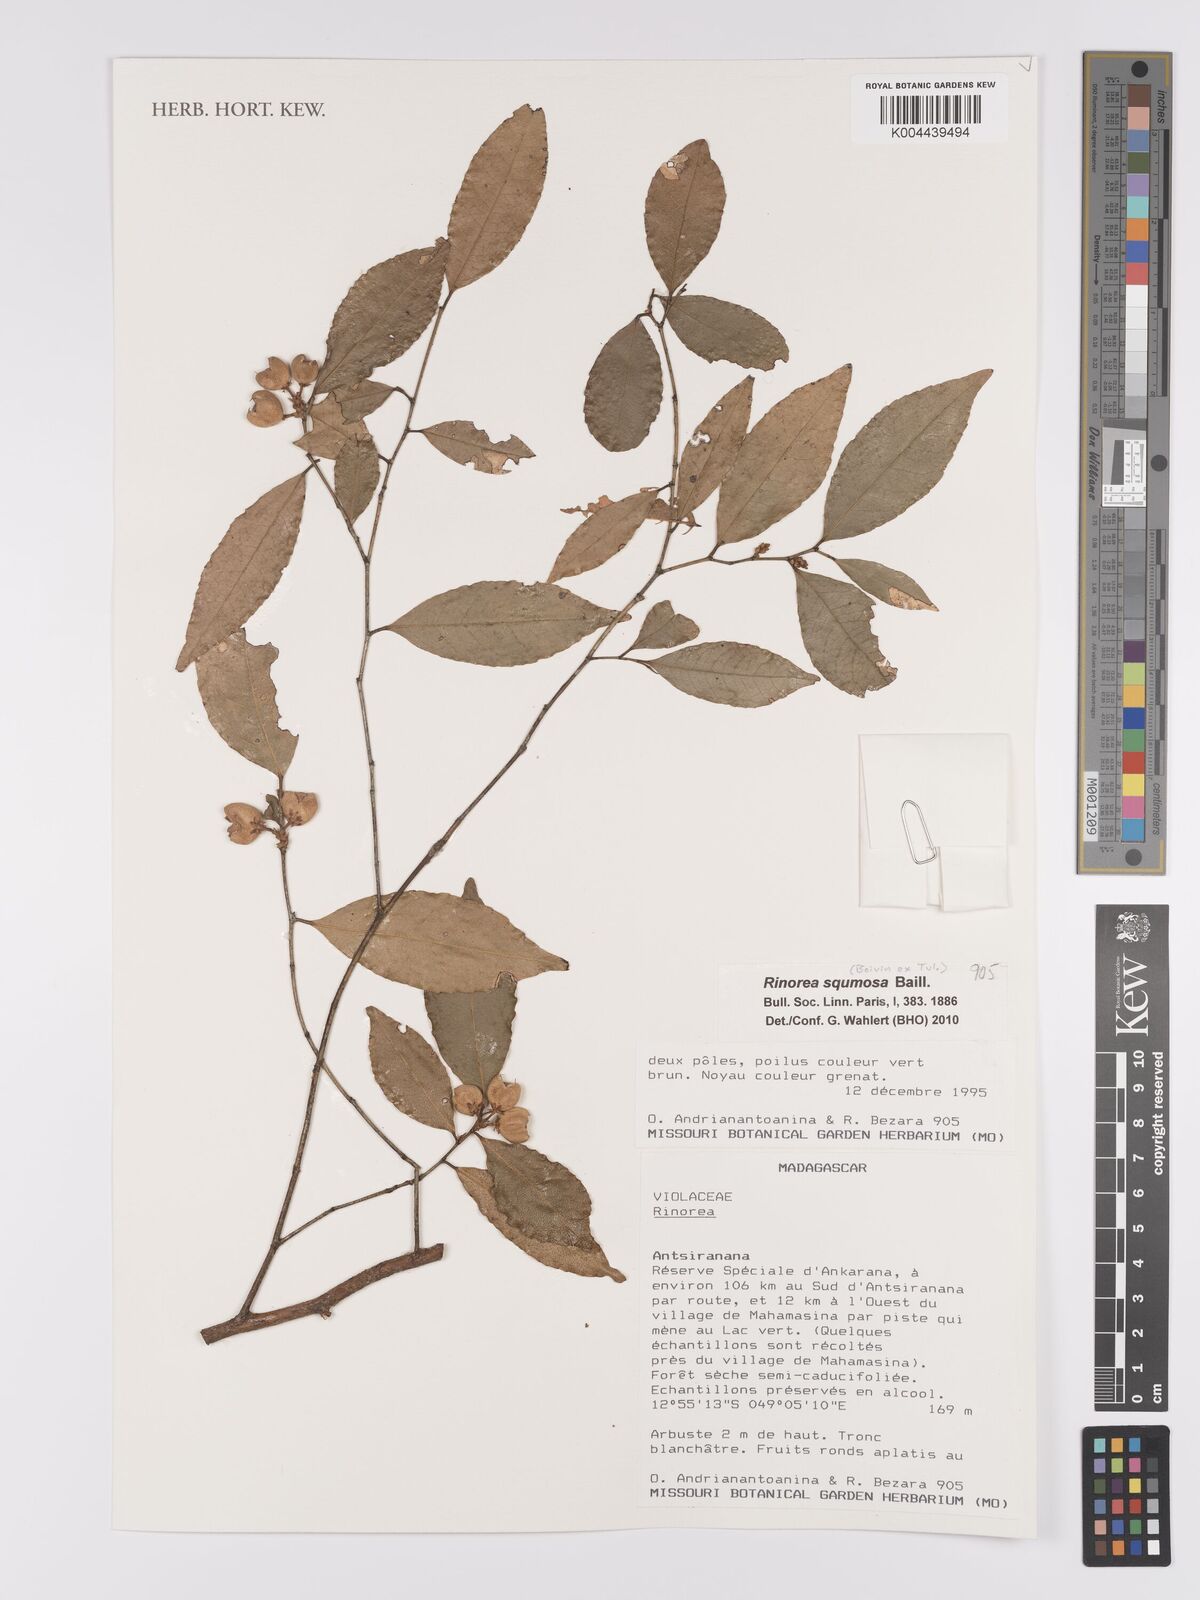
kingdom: Plantae
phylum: Tracheophyta
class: Magnoliopsida
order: Malpighiales
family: Violaceae
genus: Rinorea
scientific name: Rinorea squamosa
